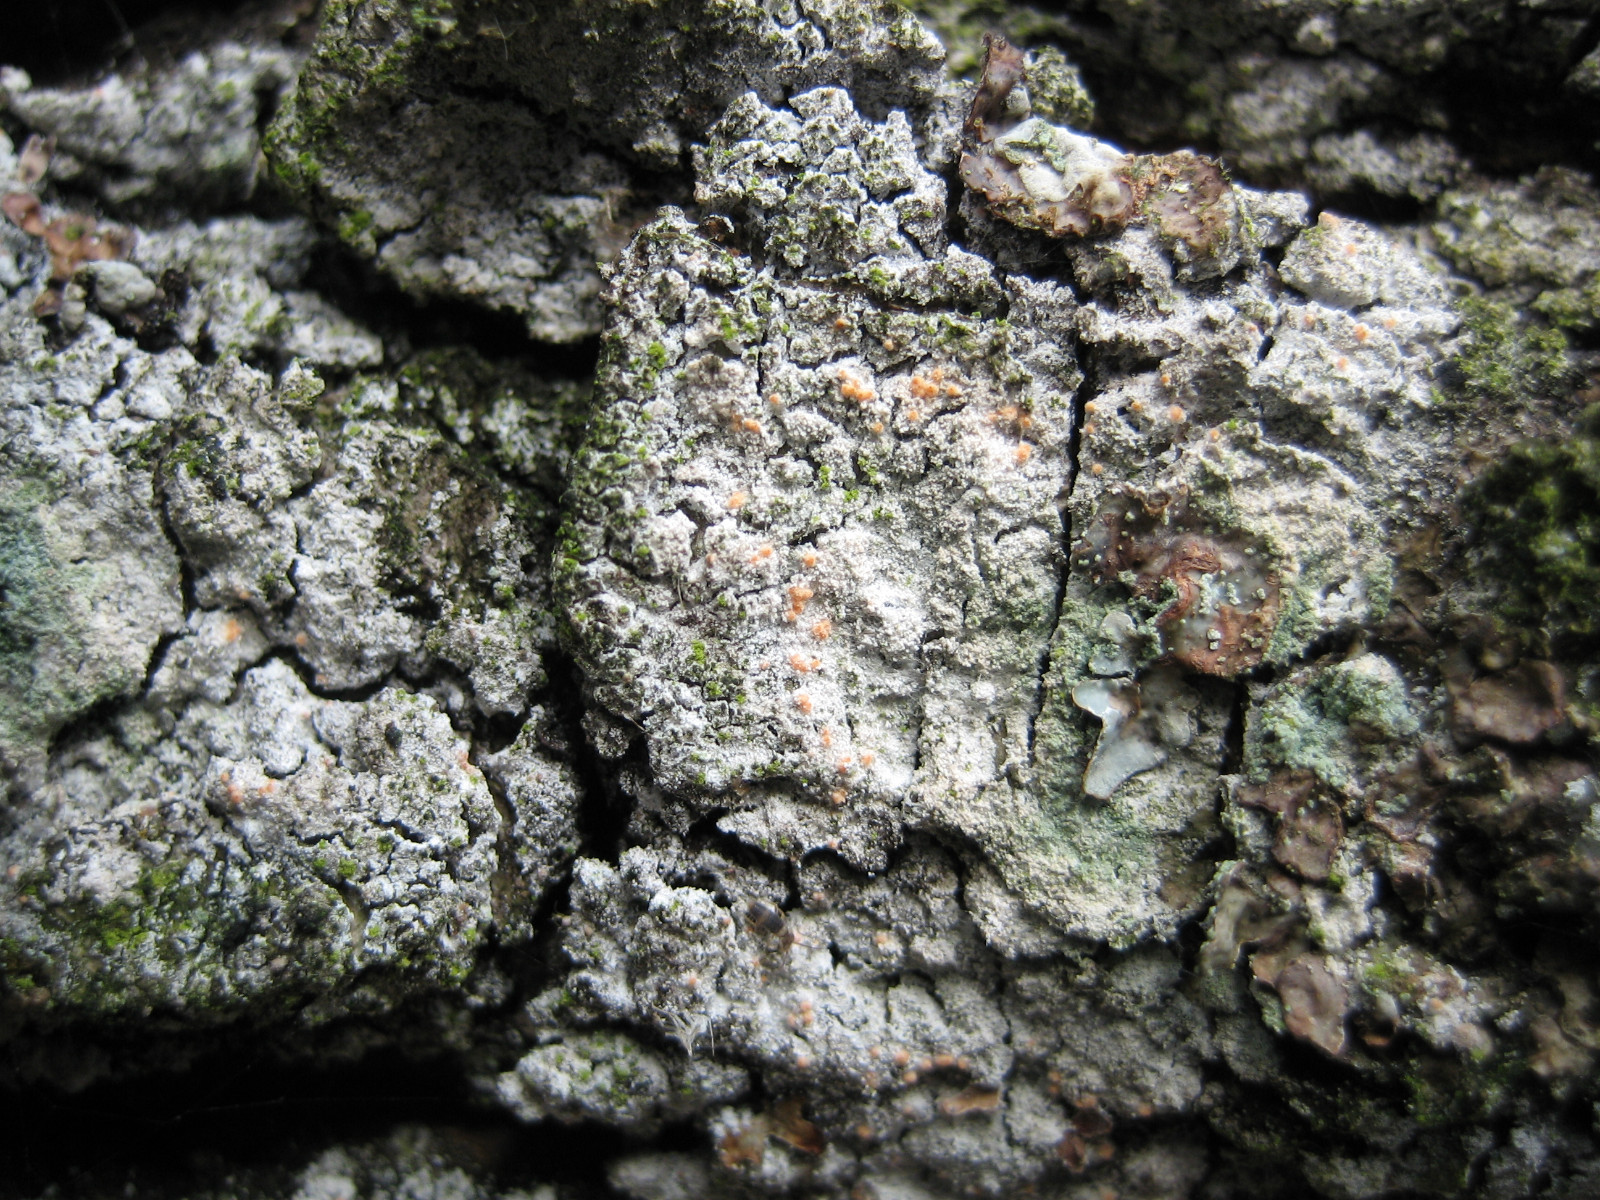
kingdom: Fungi
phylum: Ascomycota
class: Sordariomycetes
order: Hypocreales
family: Bionectriaceae
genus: Paranectria
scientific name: Paranectria oropensis
